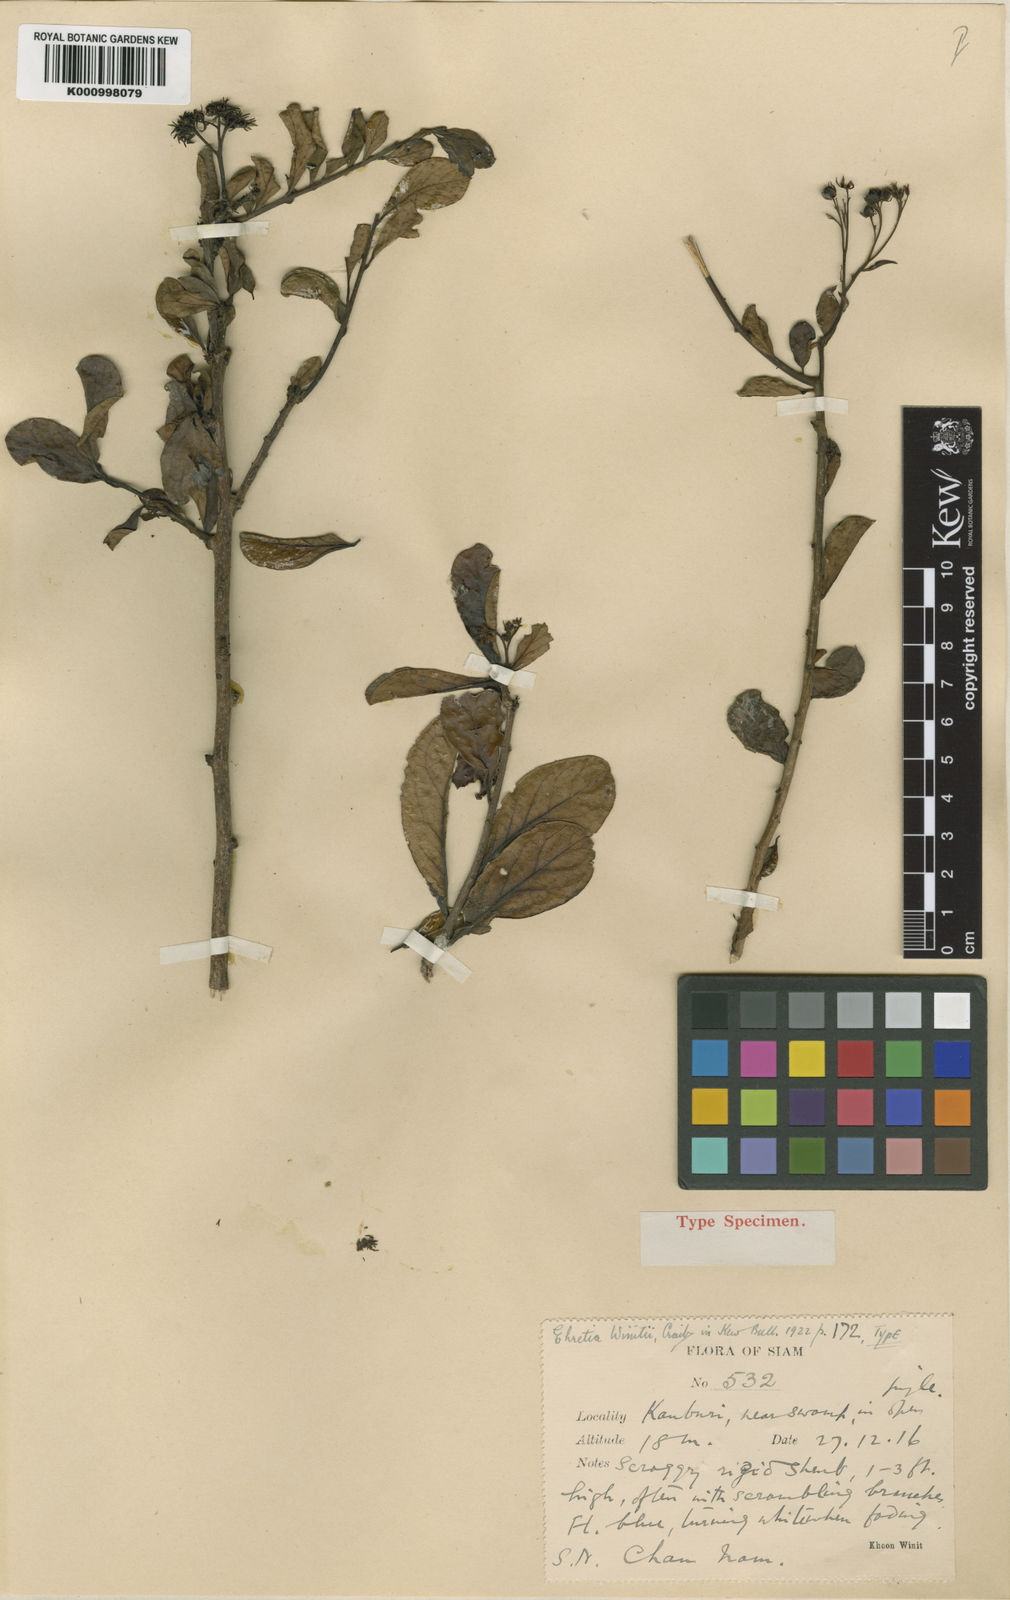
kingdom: Plantae
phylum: Tracheophyta
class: Magnoliopsida
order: Boraginales
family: Ehretiaceae
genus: Ehretia
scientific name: Ehretia winitii
